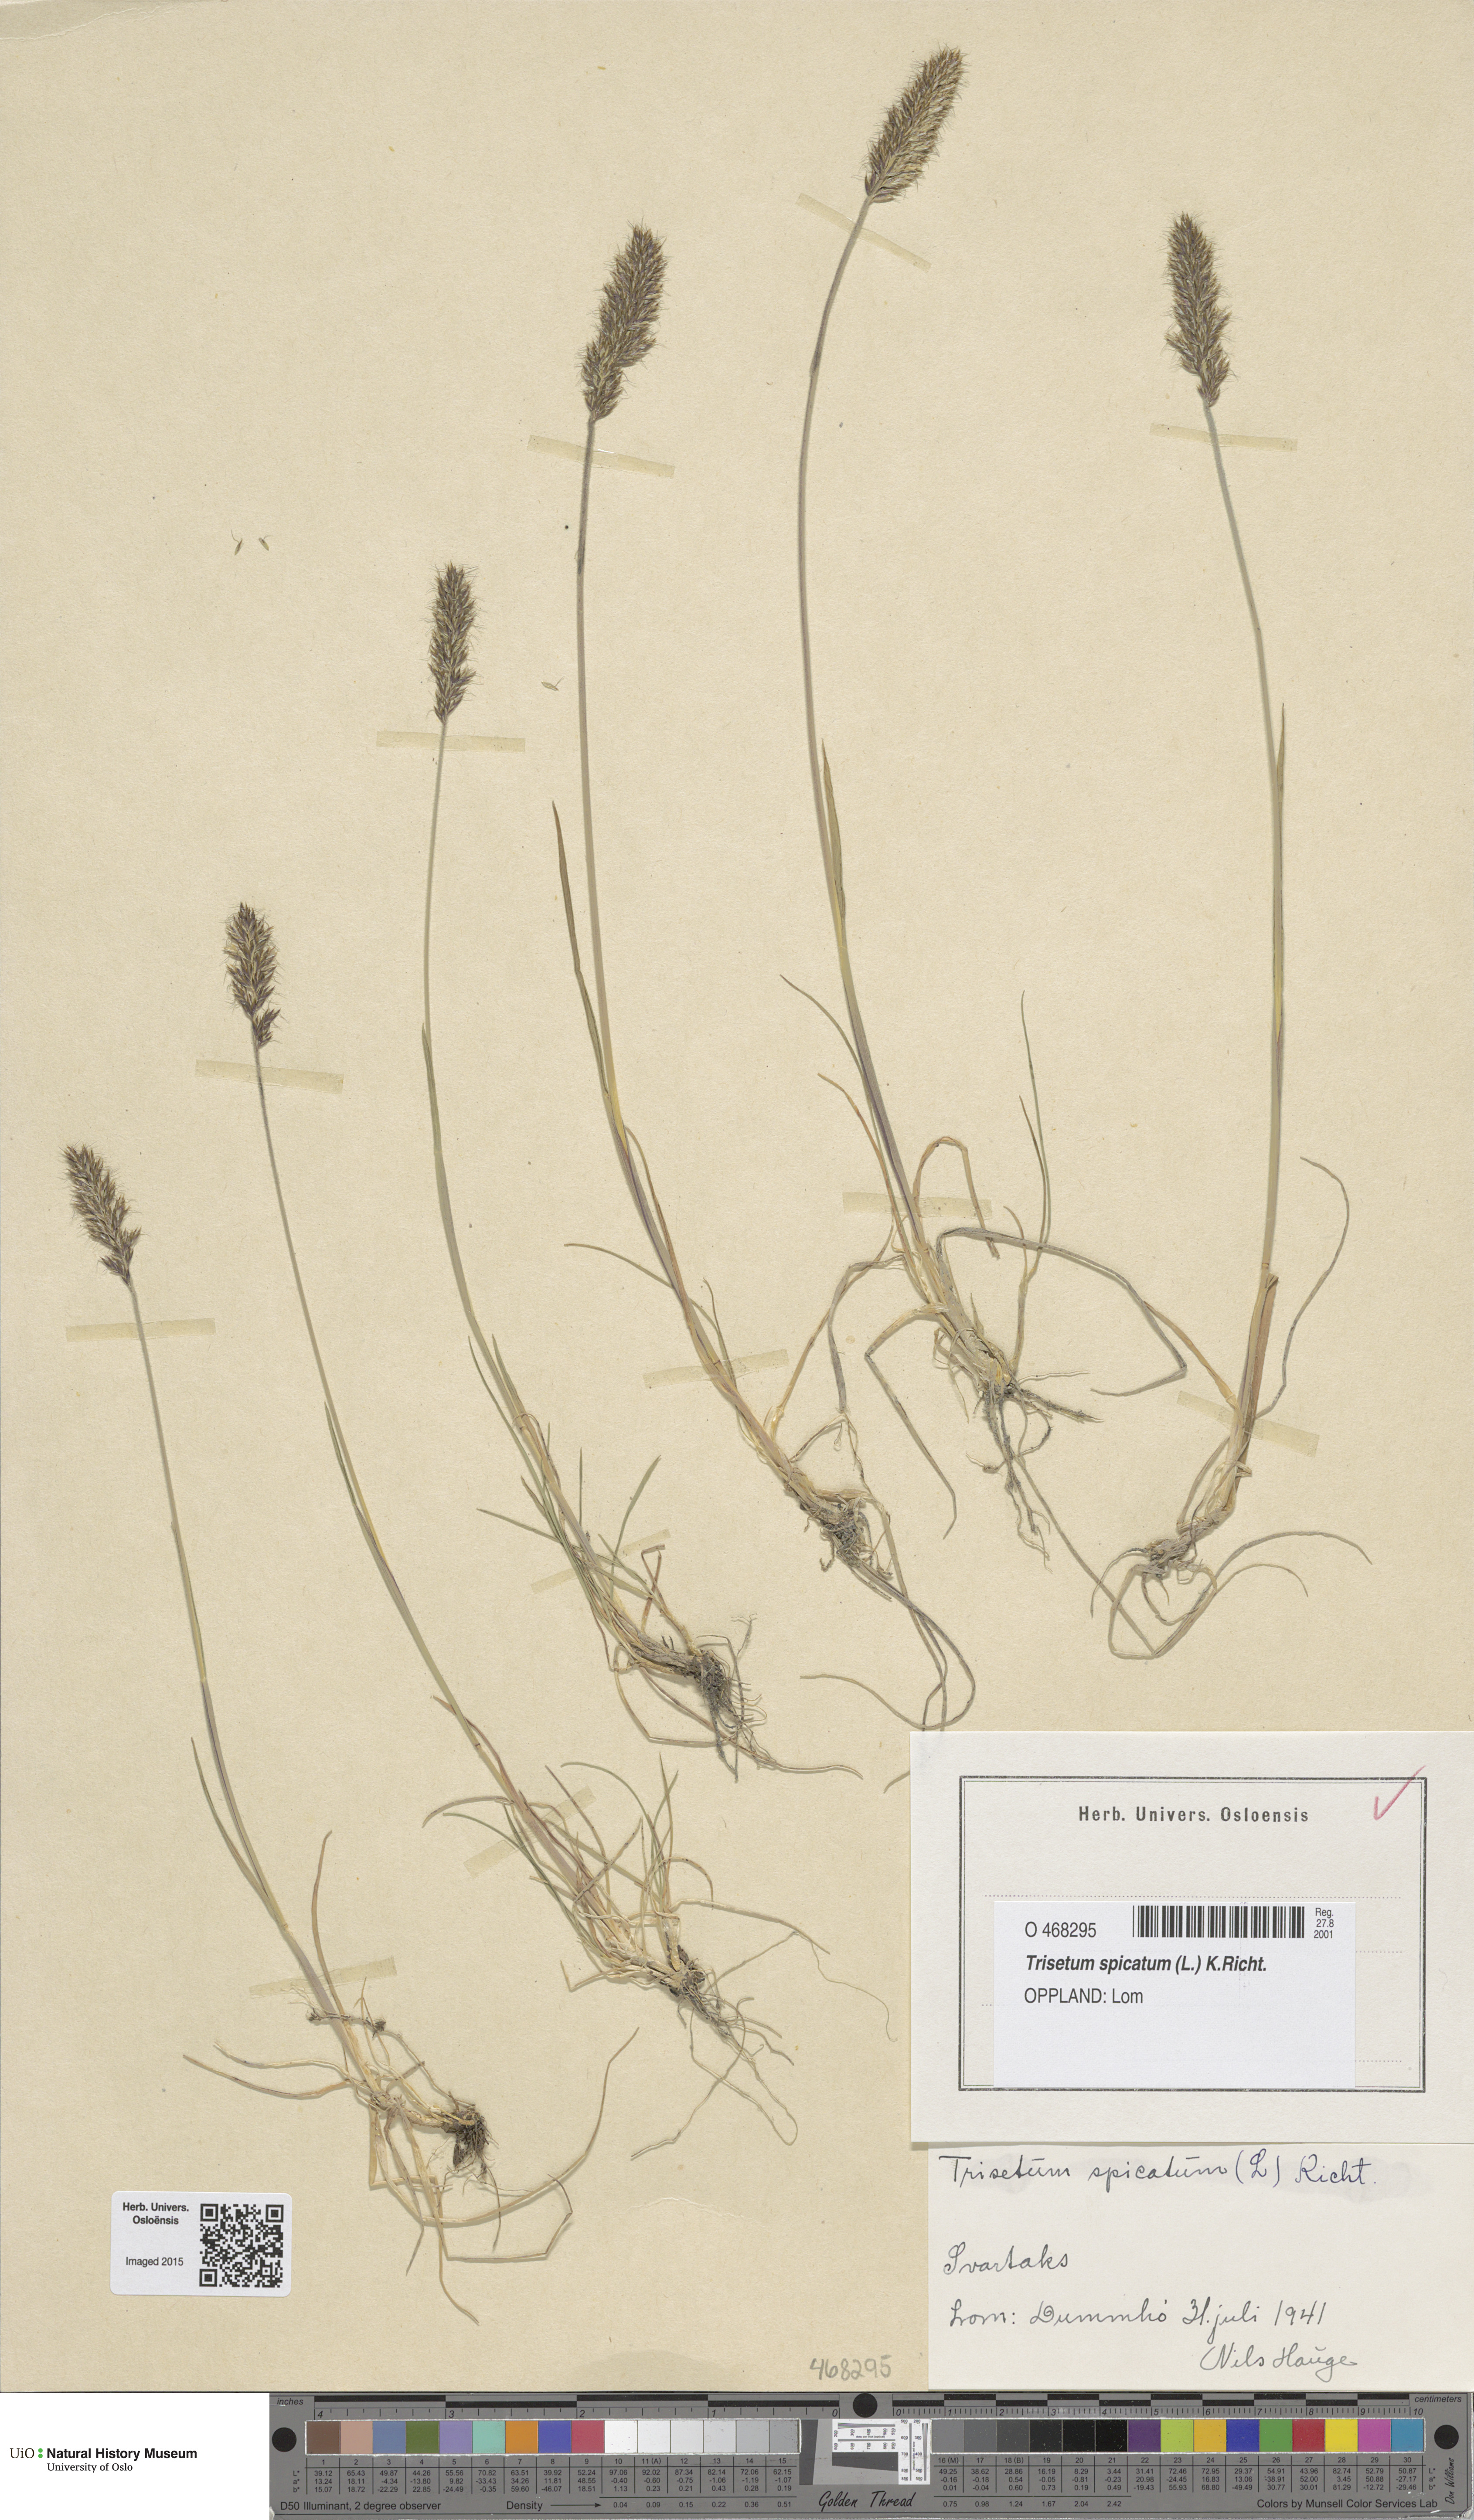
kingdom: Plantae
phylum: Tracheophyta
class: Liliopsida
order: Poales
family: Poaceae
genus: Koeleria
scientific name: Koeleria spicata
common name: Mountain trisetum
